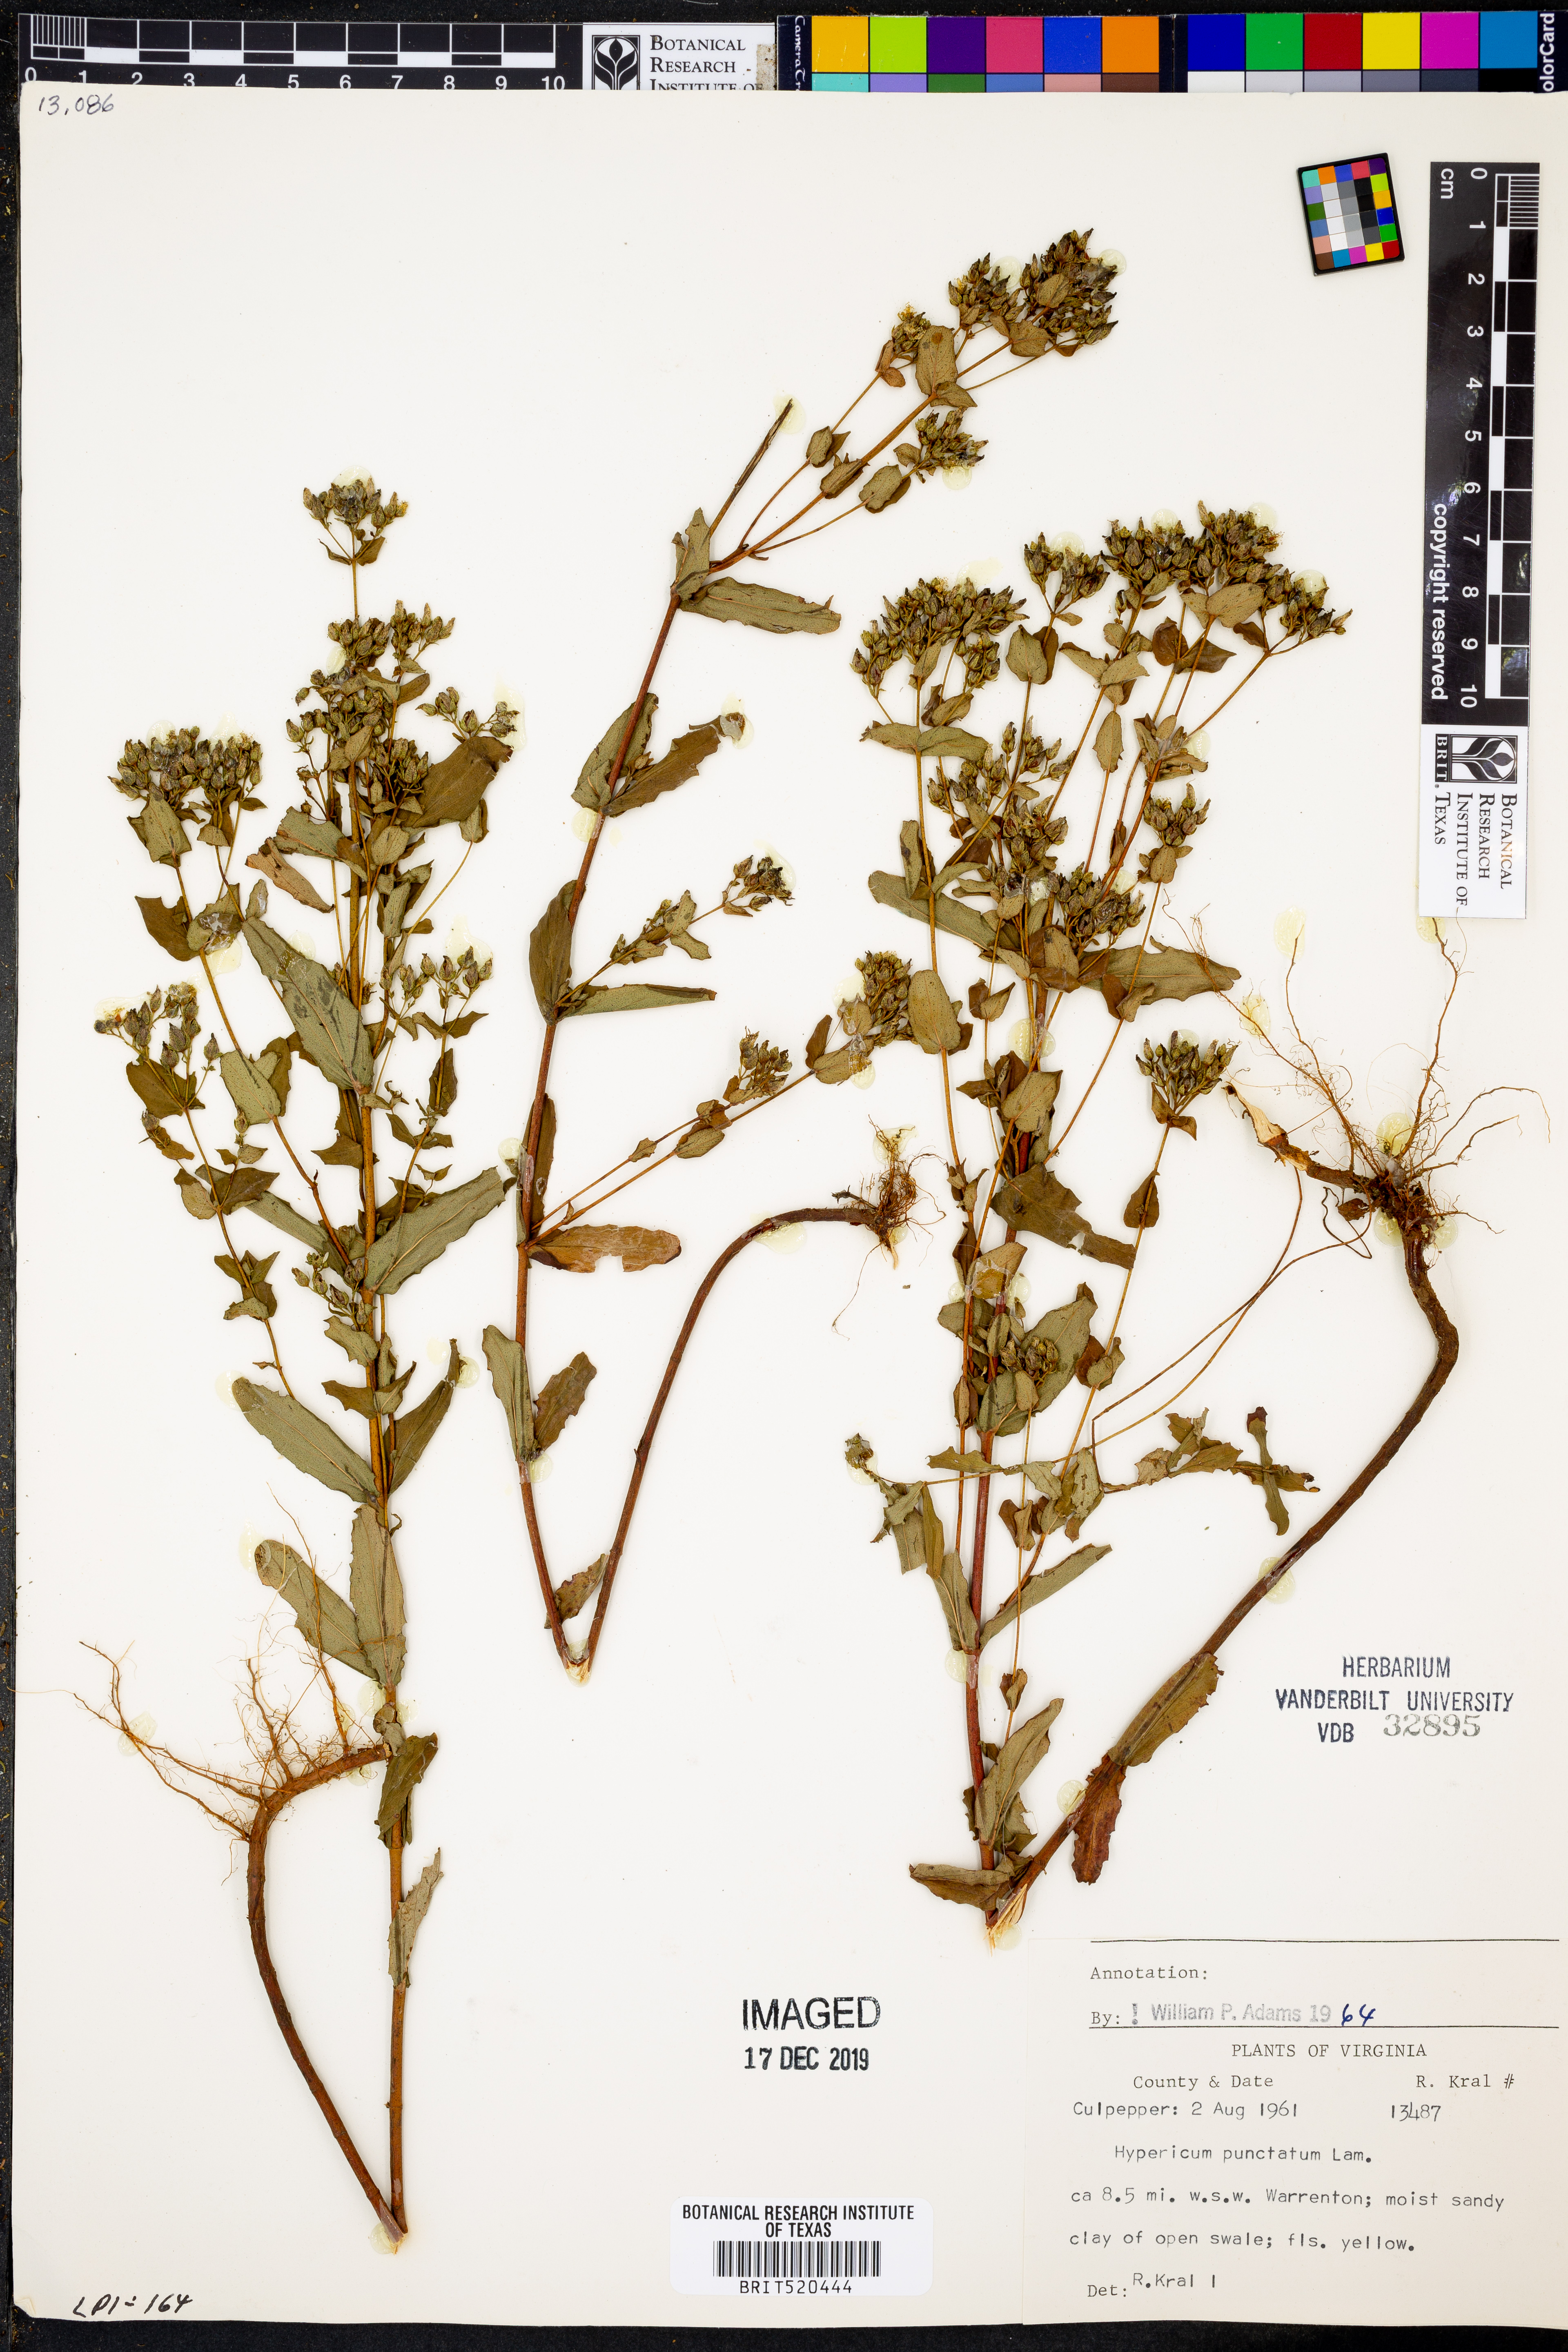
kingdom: Plantae
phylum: Tracheophyta
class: Magnoliopsida
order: Malpighiales
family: Hypericaceae
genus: Hypericum
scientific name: Hypericum punctatum
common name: Spotted st. john's-wort
